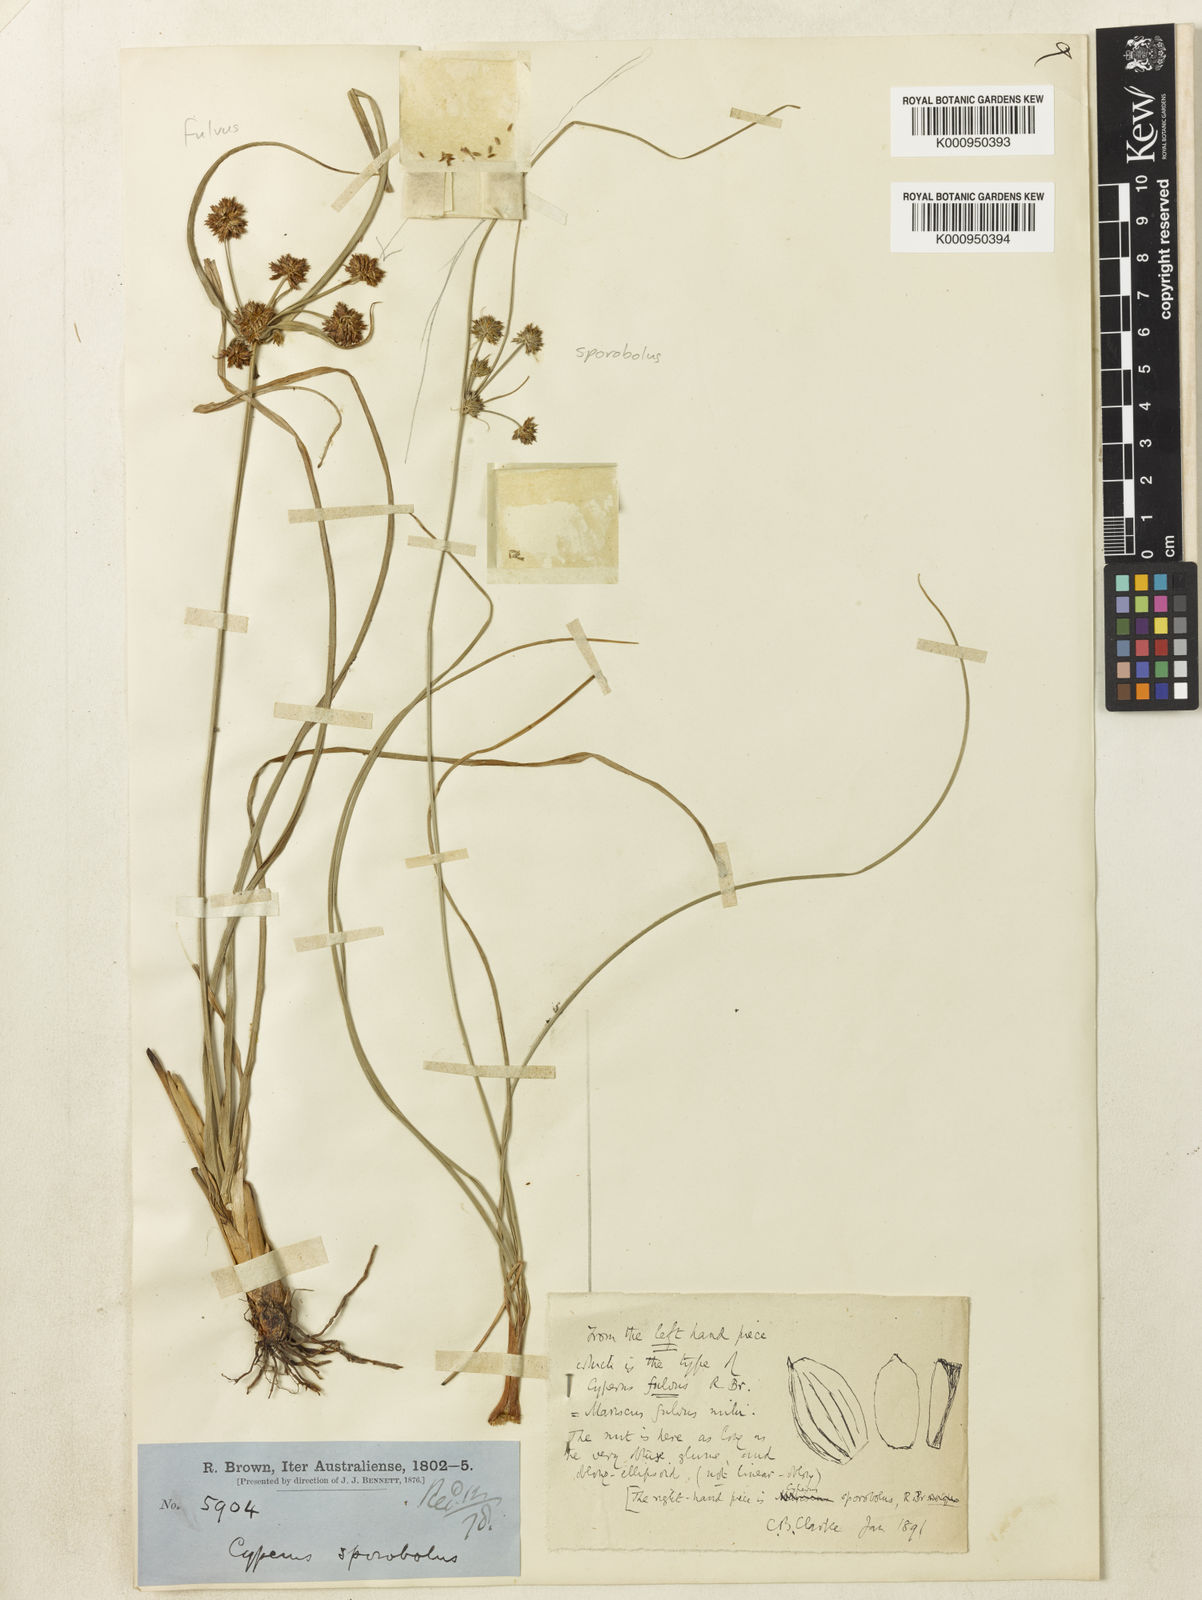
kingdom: Plantae
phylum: Tracheophyta
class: Liliopsida
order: Poales
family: Cyperaceae
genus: Cyperus
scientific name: Cyperus fulvus
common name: Sticky sedge
